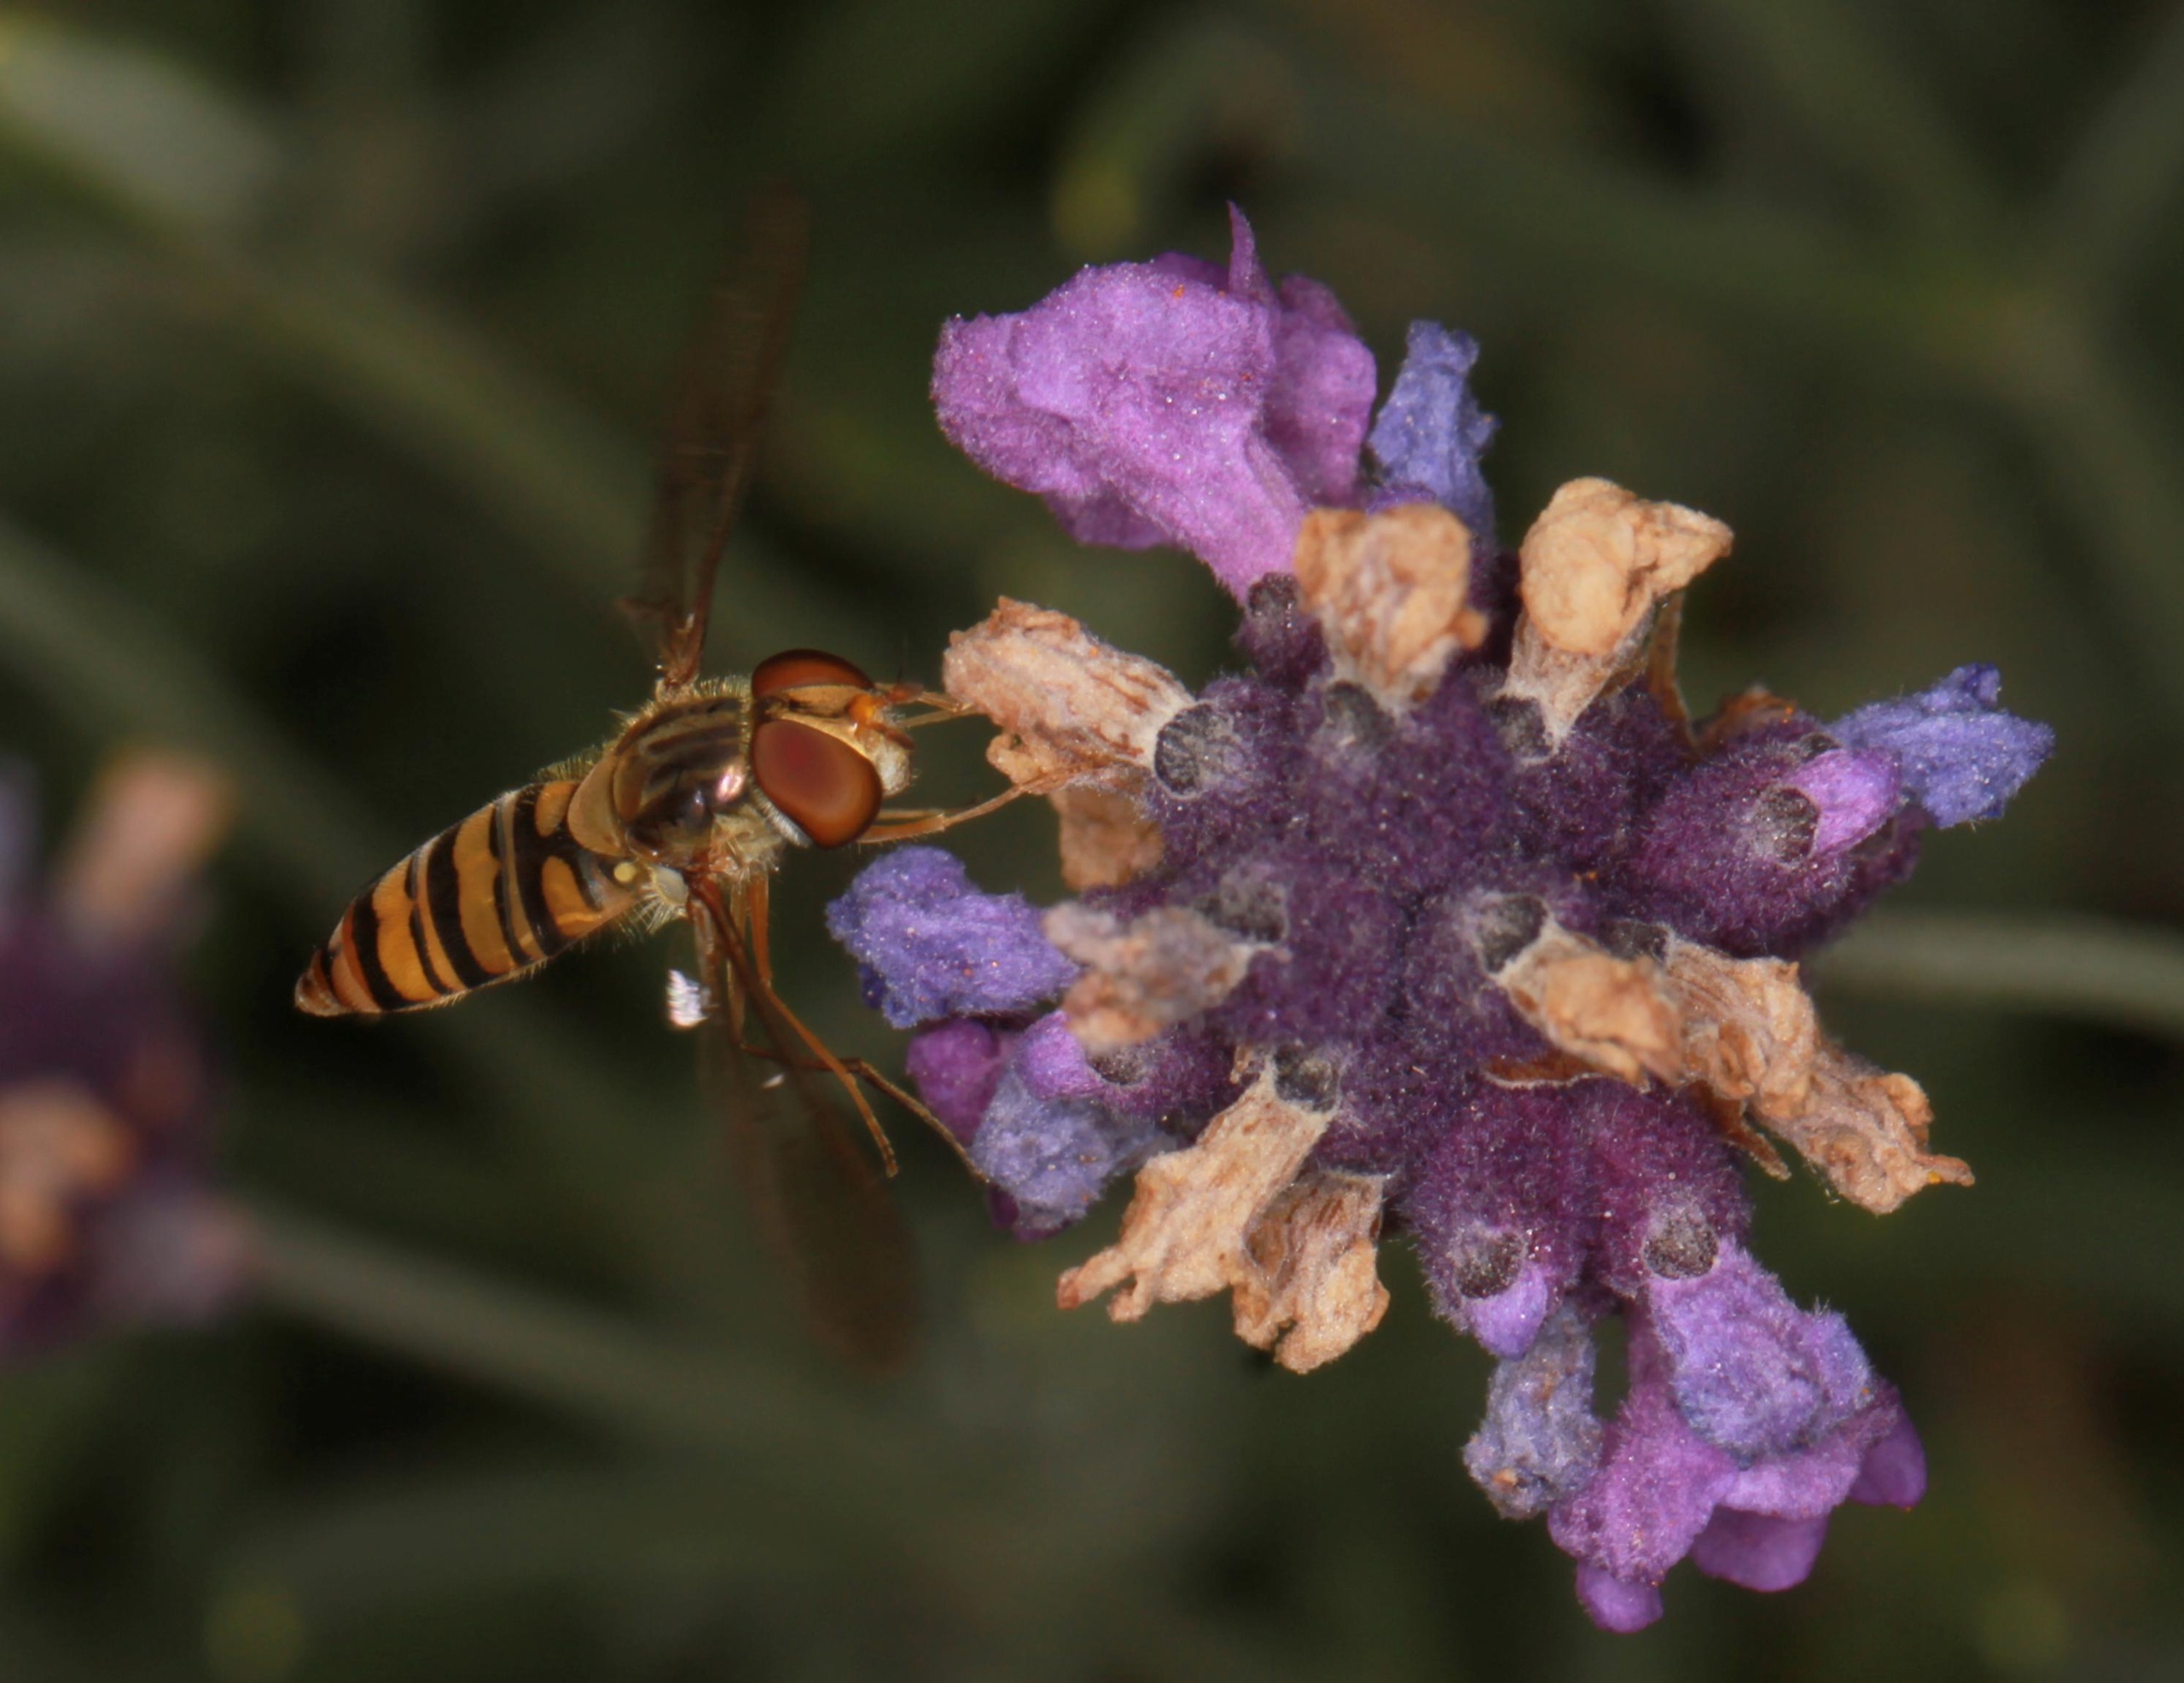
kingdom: Animalia
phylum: Arthropoda
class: Insecta
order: Diptera
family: Syrphidae
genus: Episyrphus
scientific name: Episyrphus balteatus
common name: Dobbeltbåndet svirreflue
